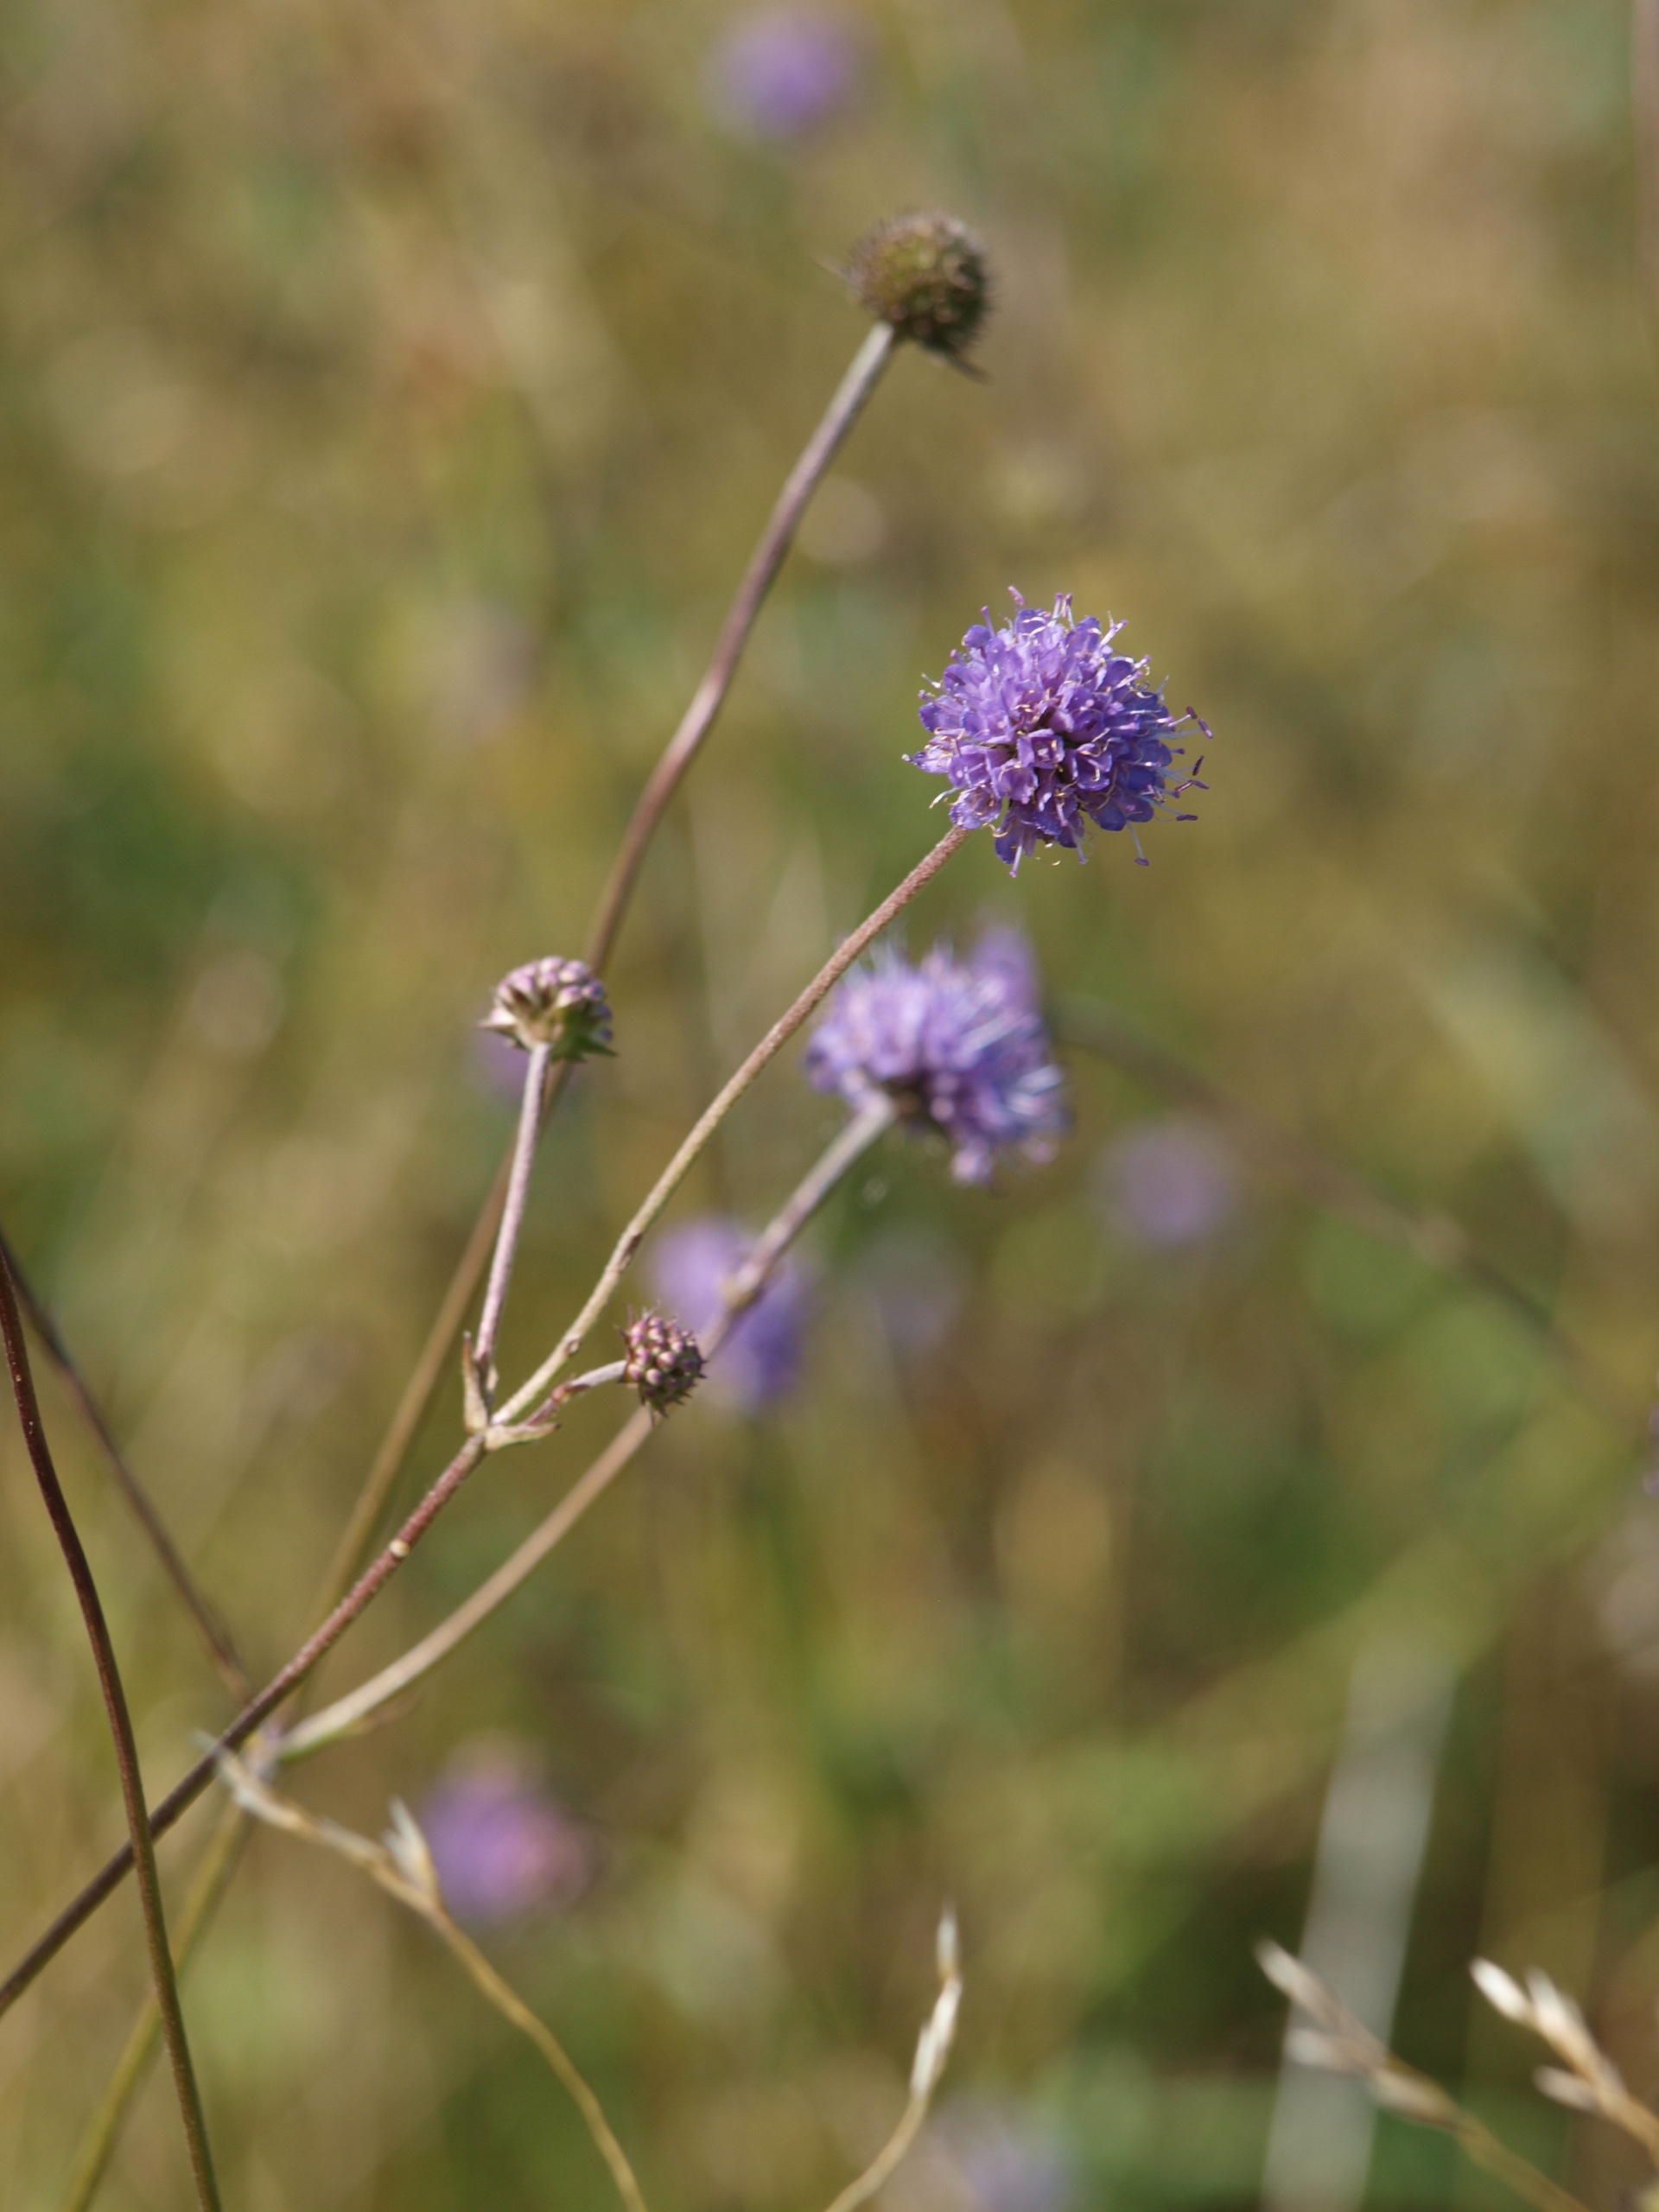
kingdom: Plantae
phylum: Tracheophyta
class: Magnoliopsida
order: Dipsacales
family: Caprifoliaceae
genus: Succisa
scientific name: Succisa pratensis
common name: Djævelsbid
